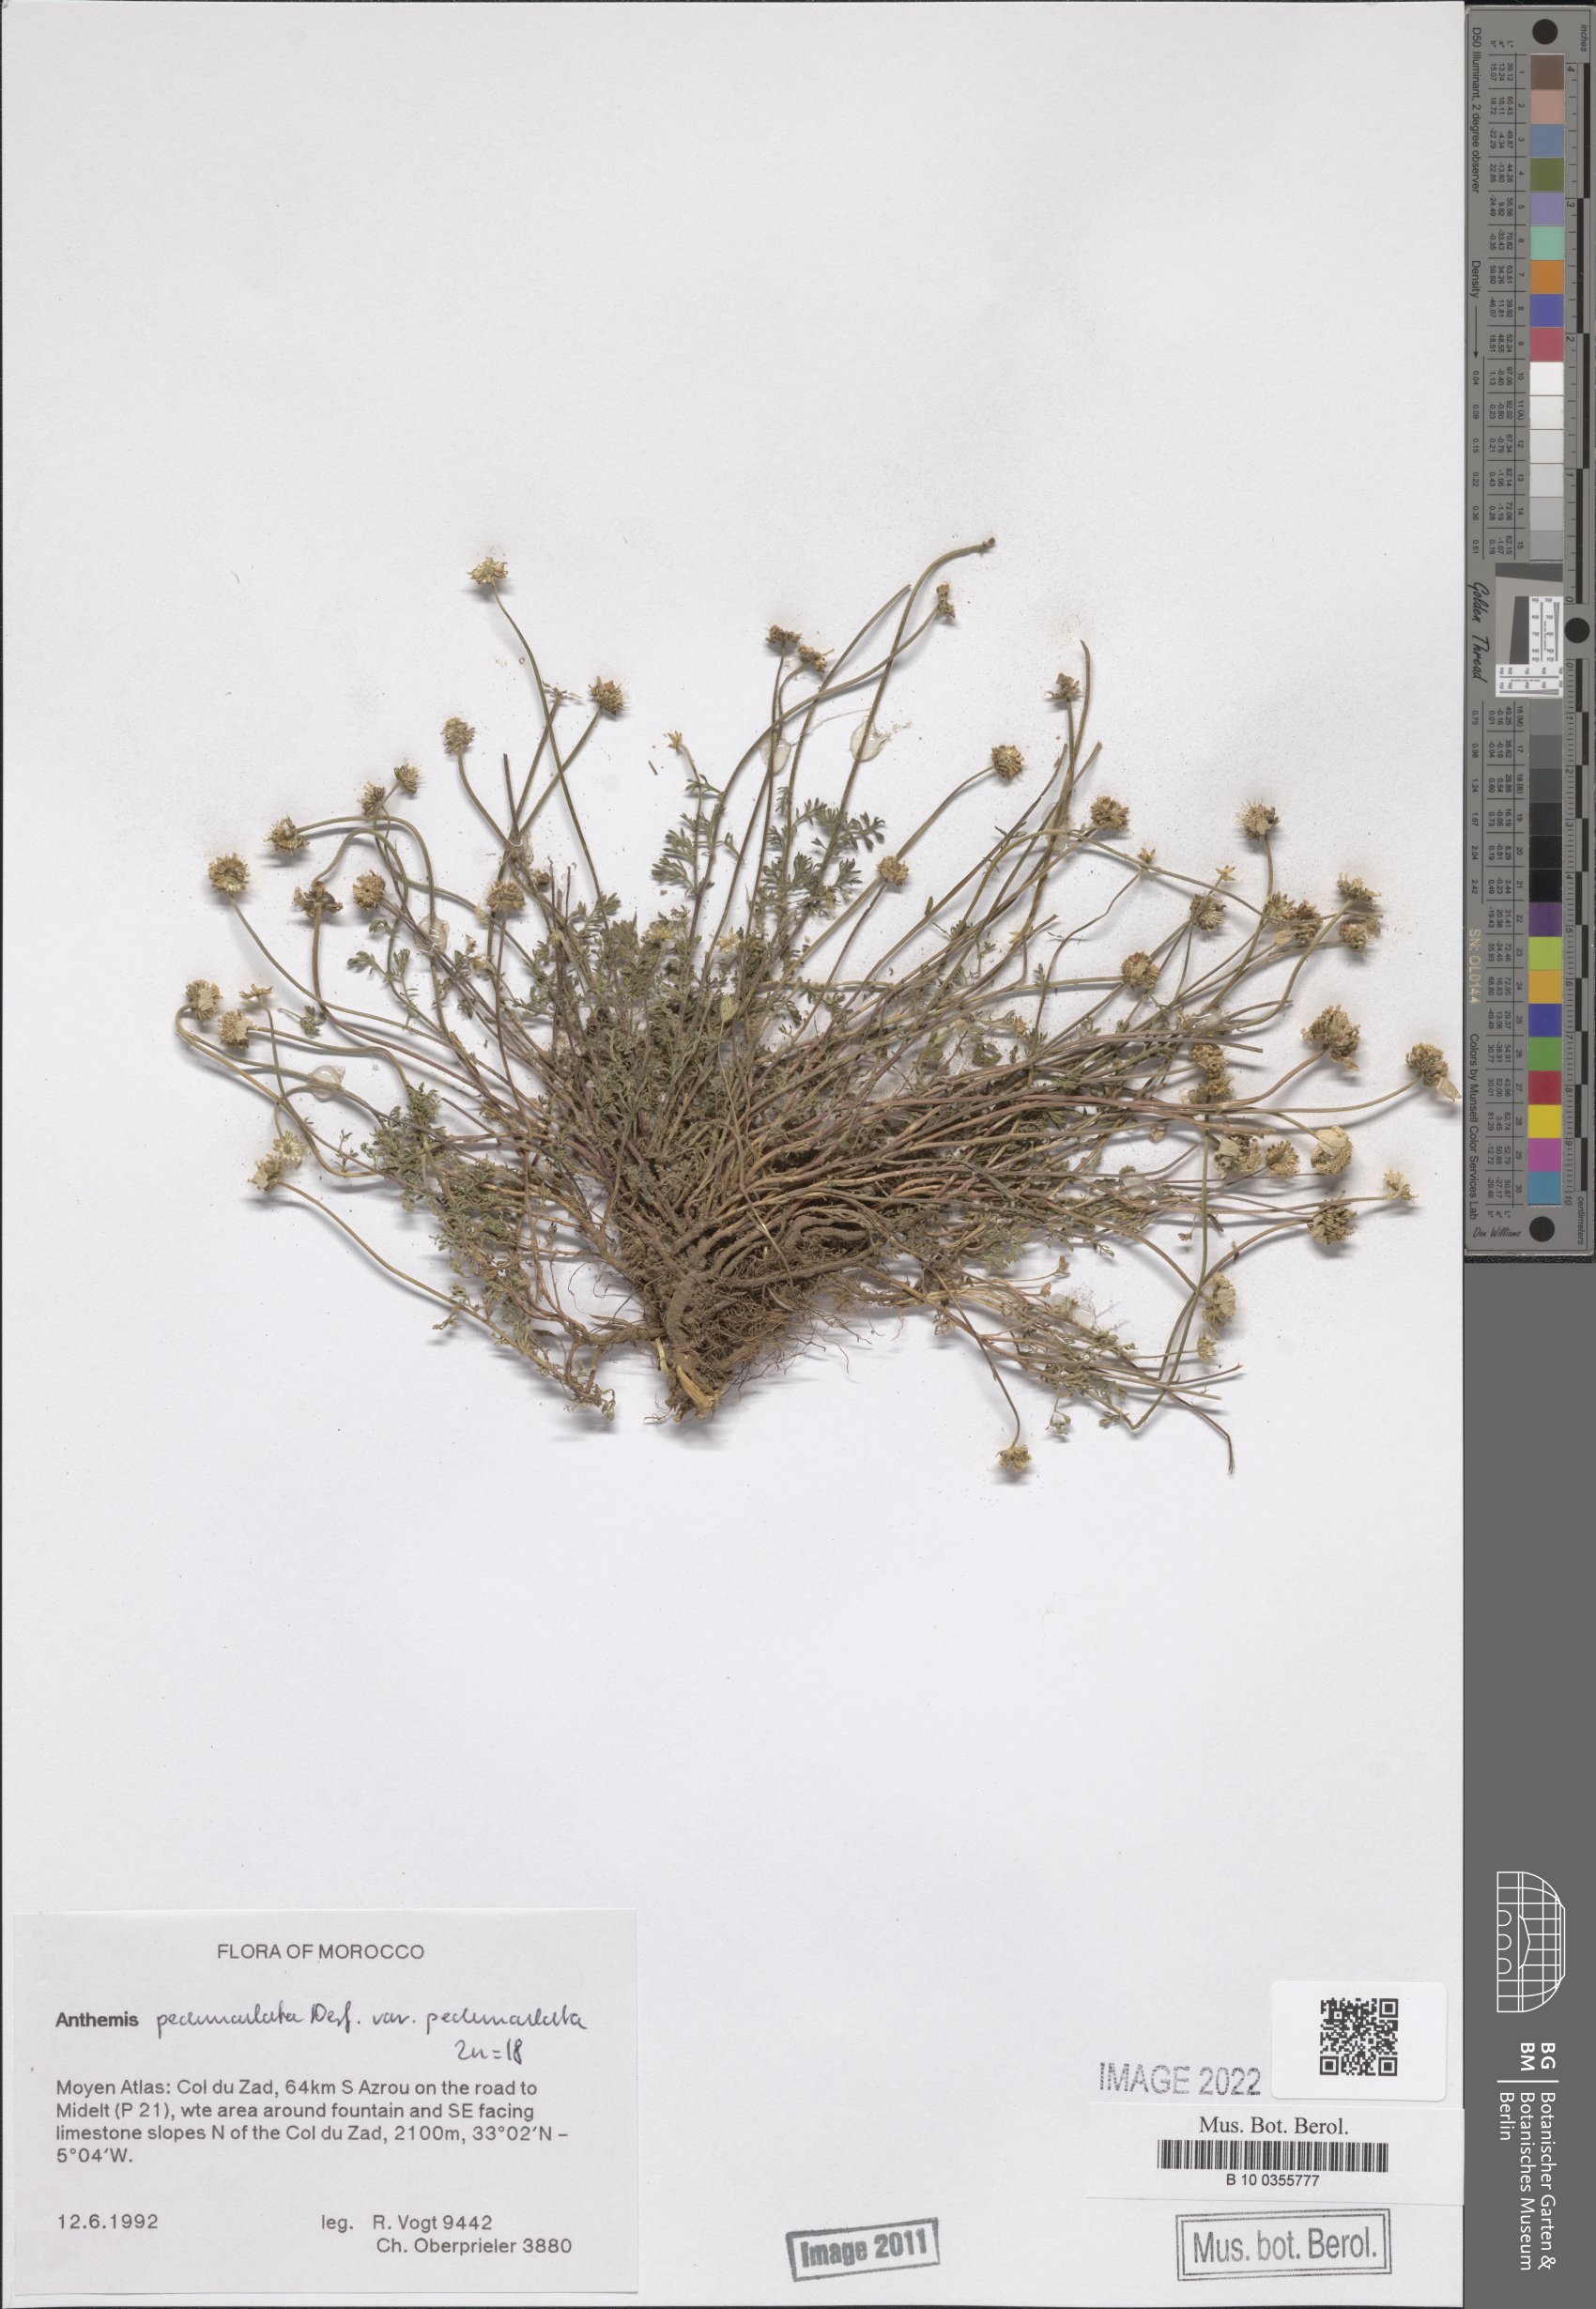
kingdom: Plantae
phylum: Tracheophyta
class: Magnoliopsida
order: Asterales
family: Asteraceae
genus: Anthemis
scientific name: Anthemis pedunculata
